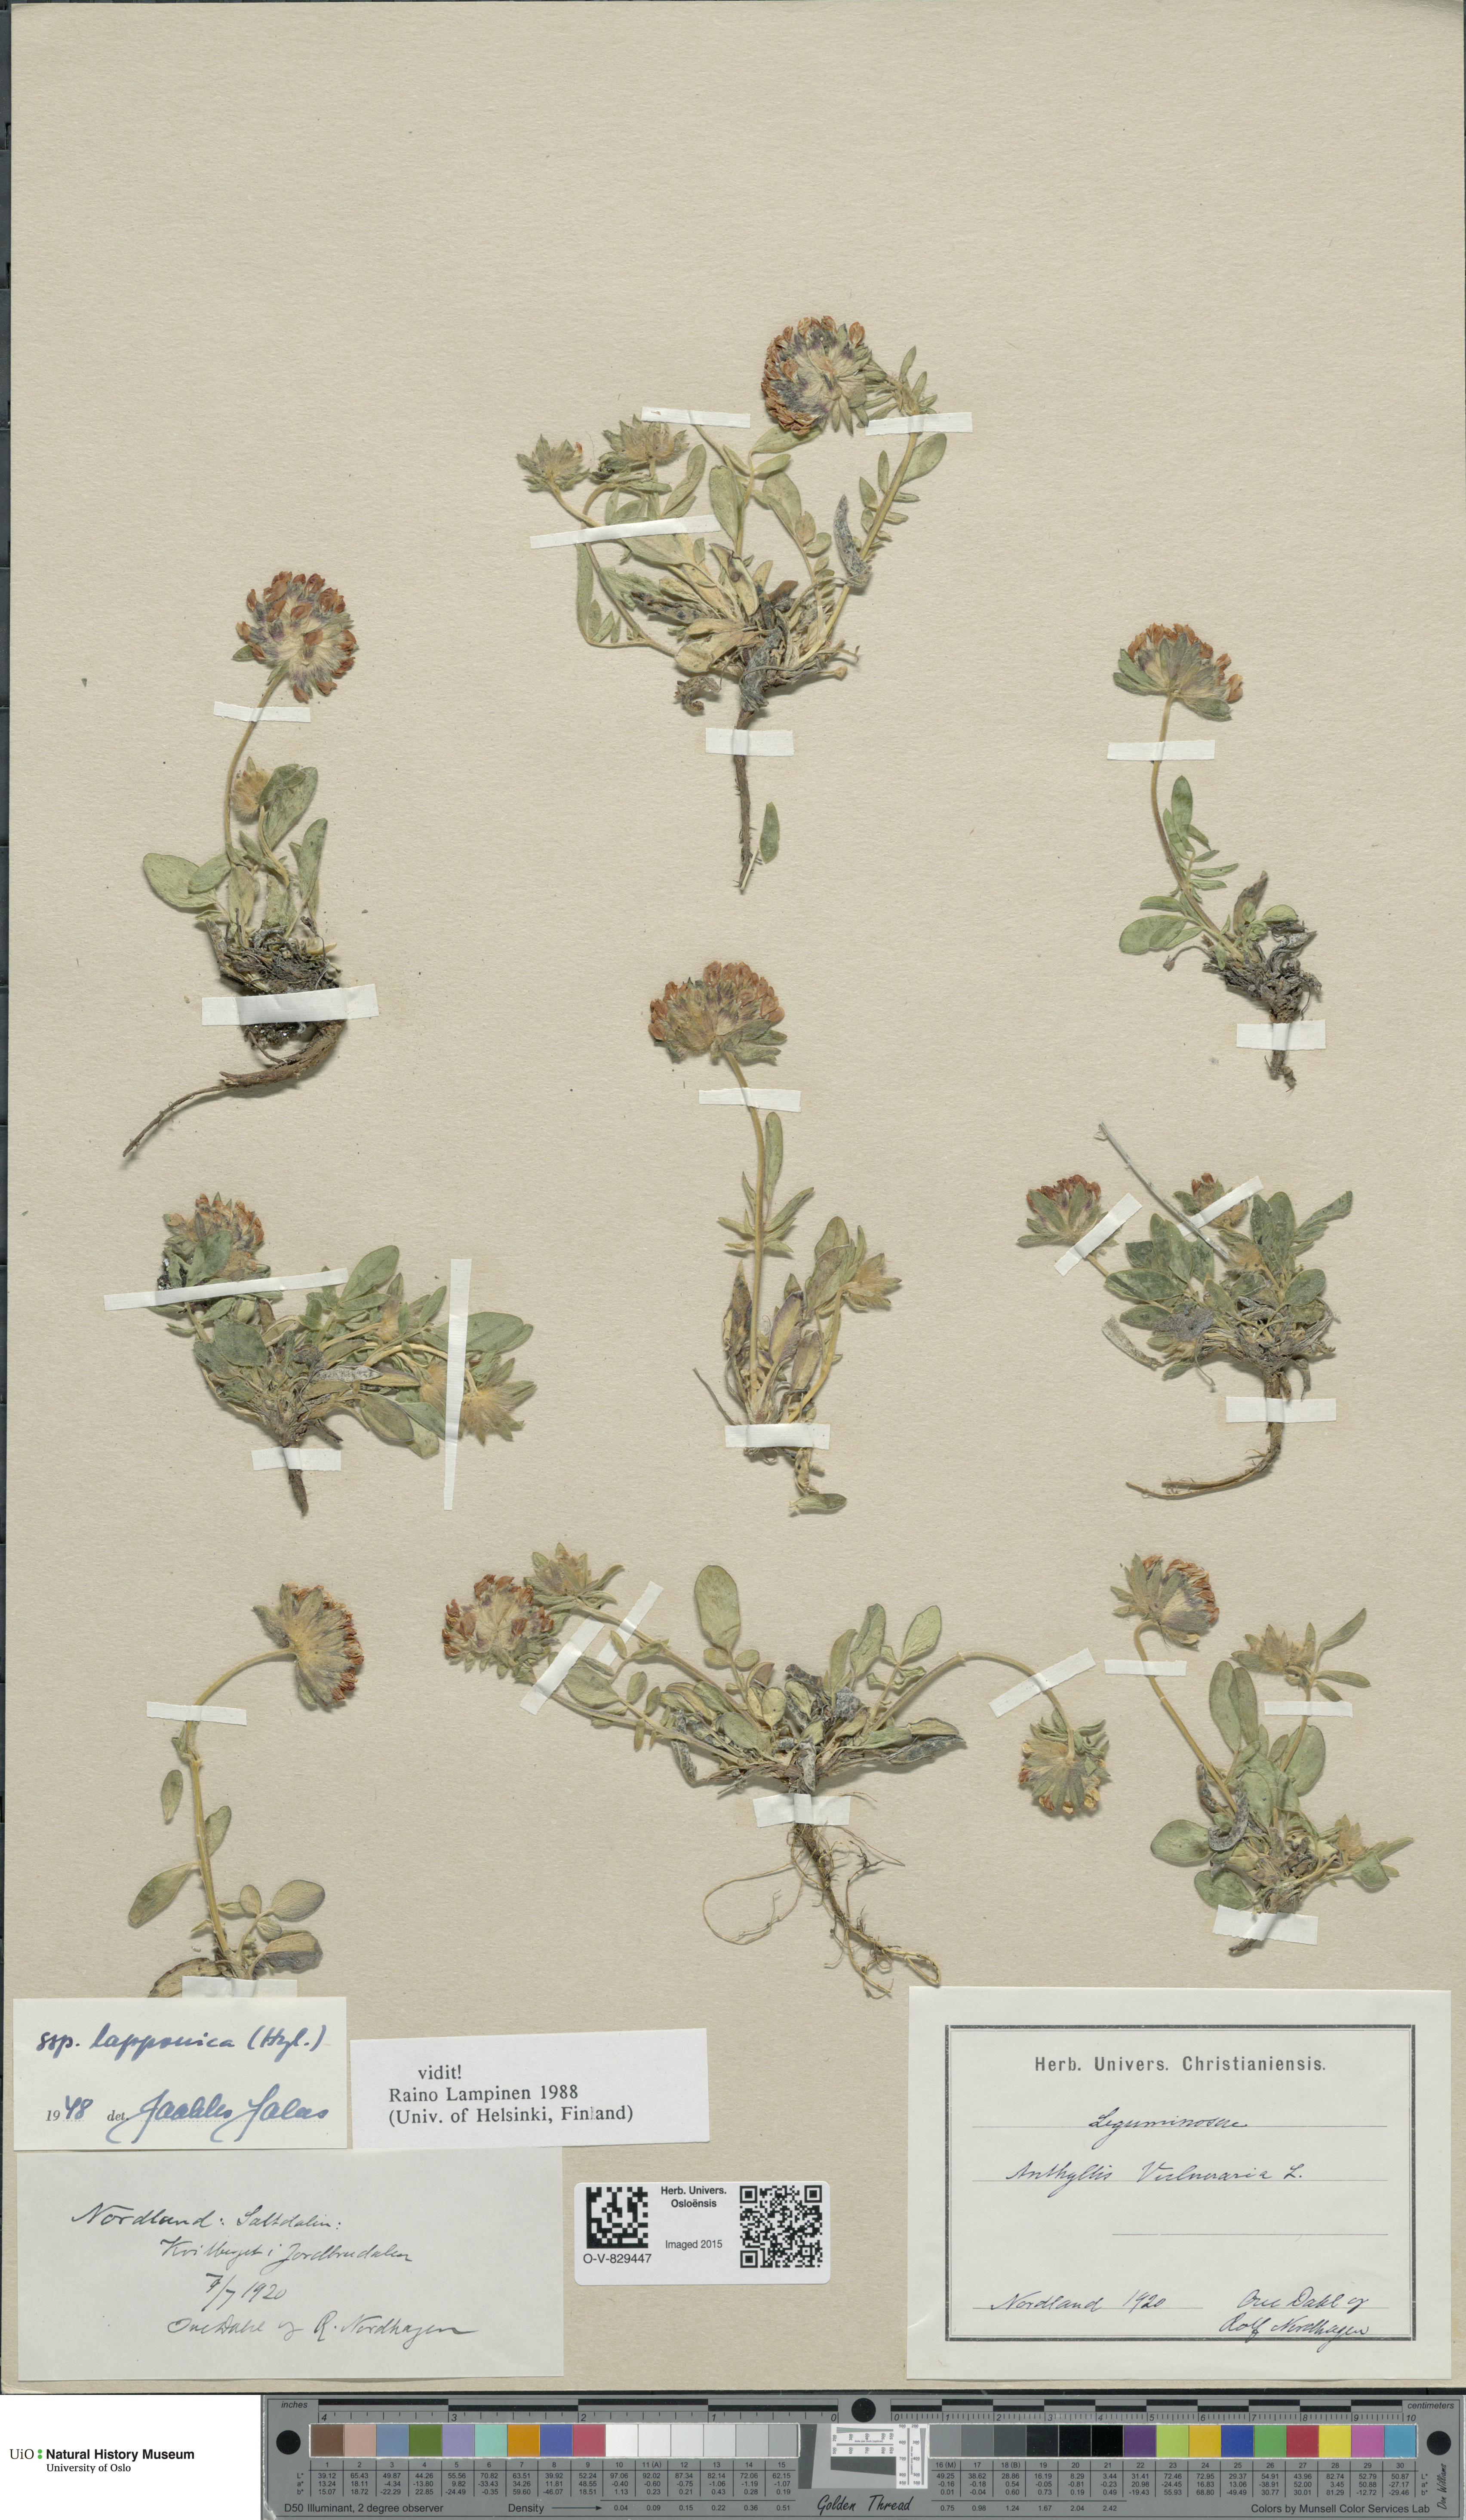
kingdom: Plantae
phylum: Tracheophyta
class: Magnoliopsida
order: Fabales
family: Fabaceae
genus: Anthyllis
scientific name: Anthyllis vulneraria
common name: Kidney vetch
